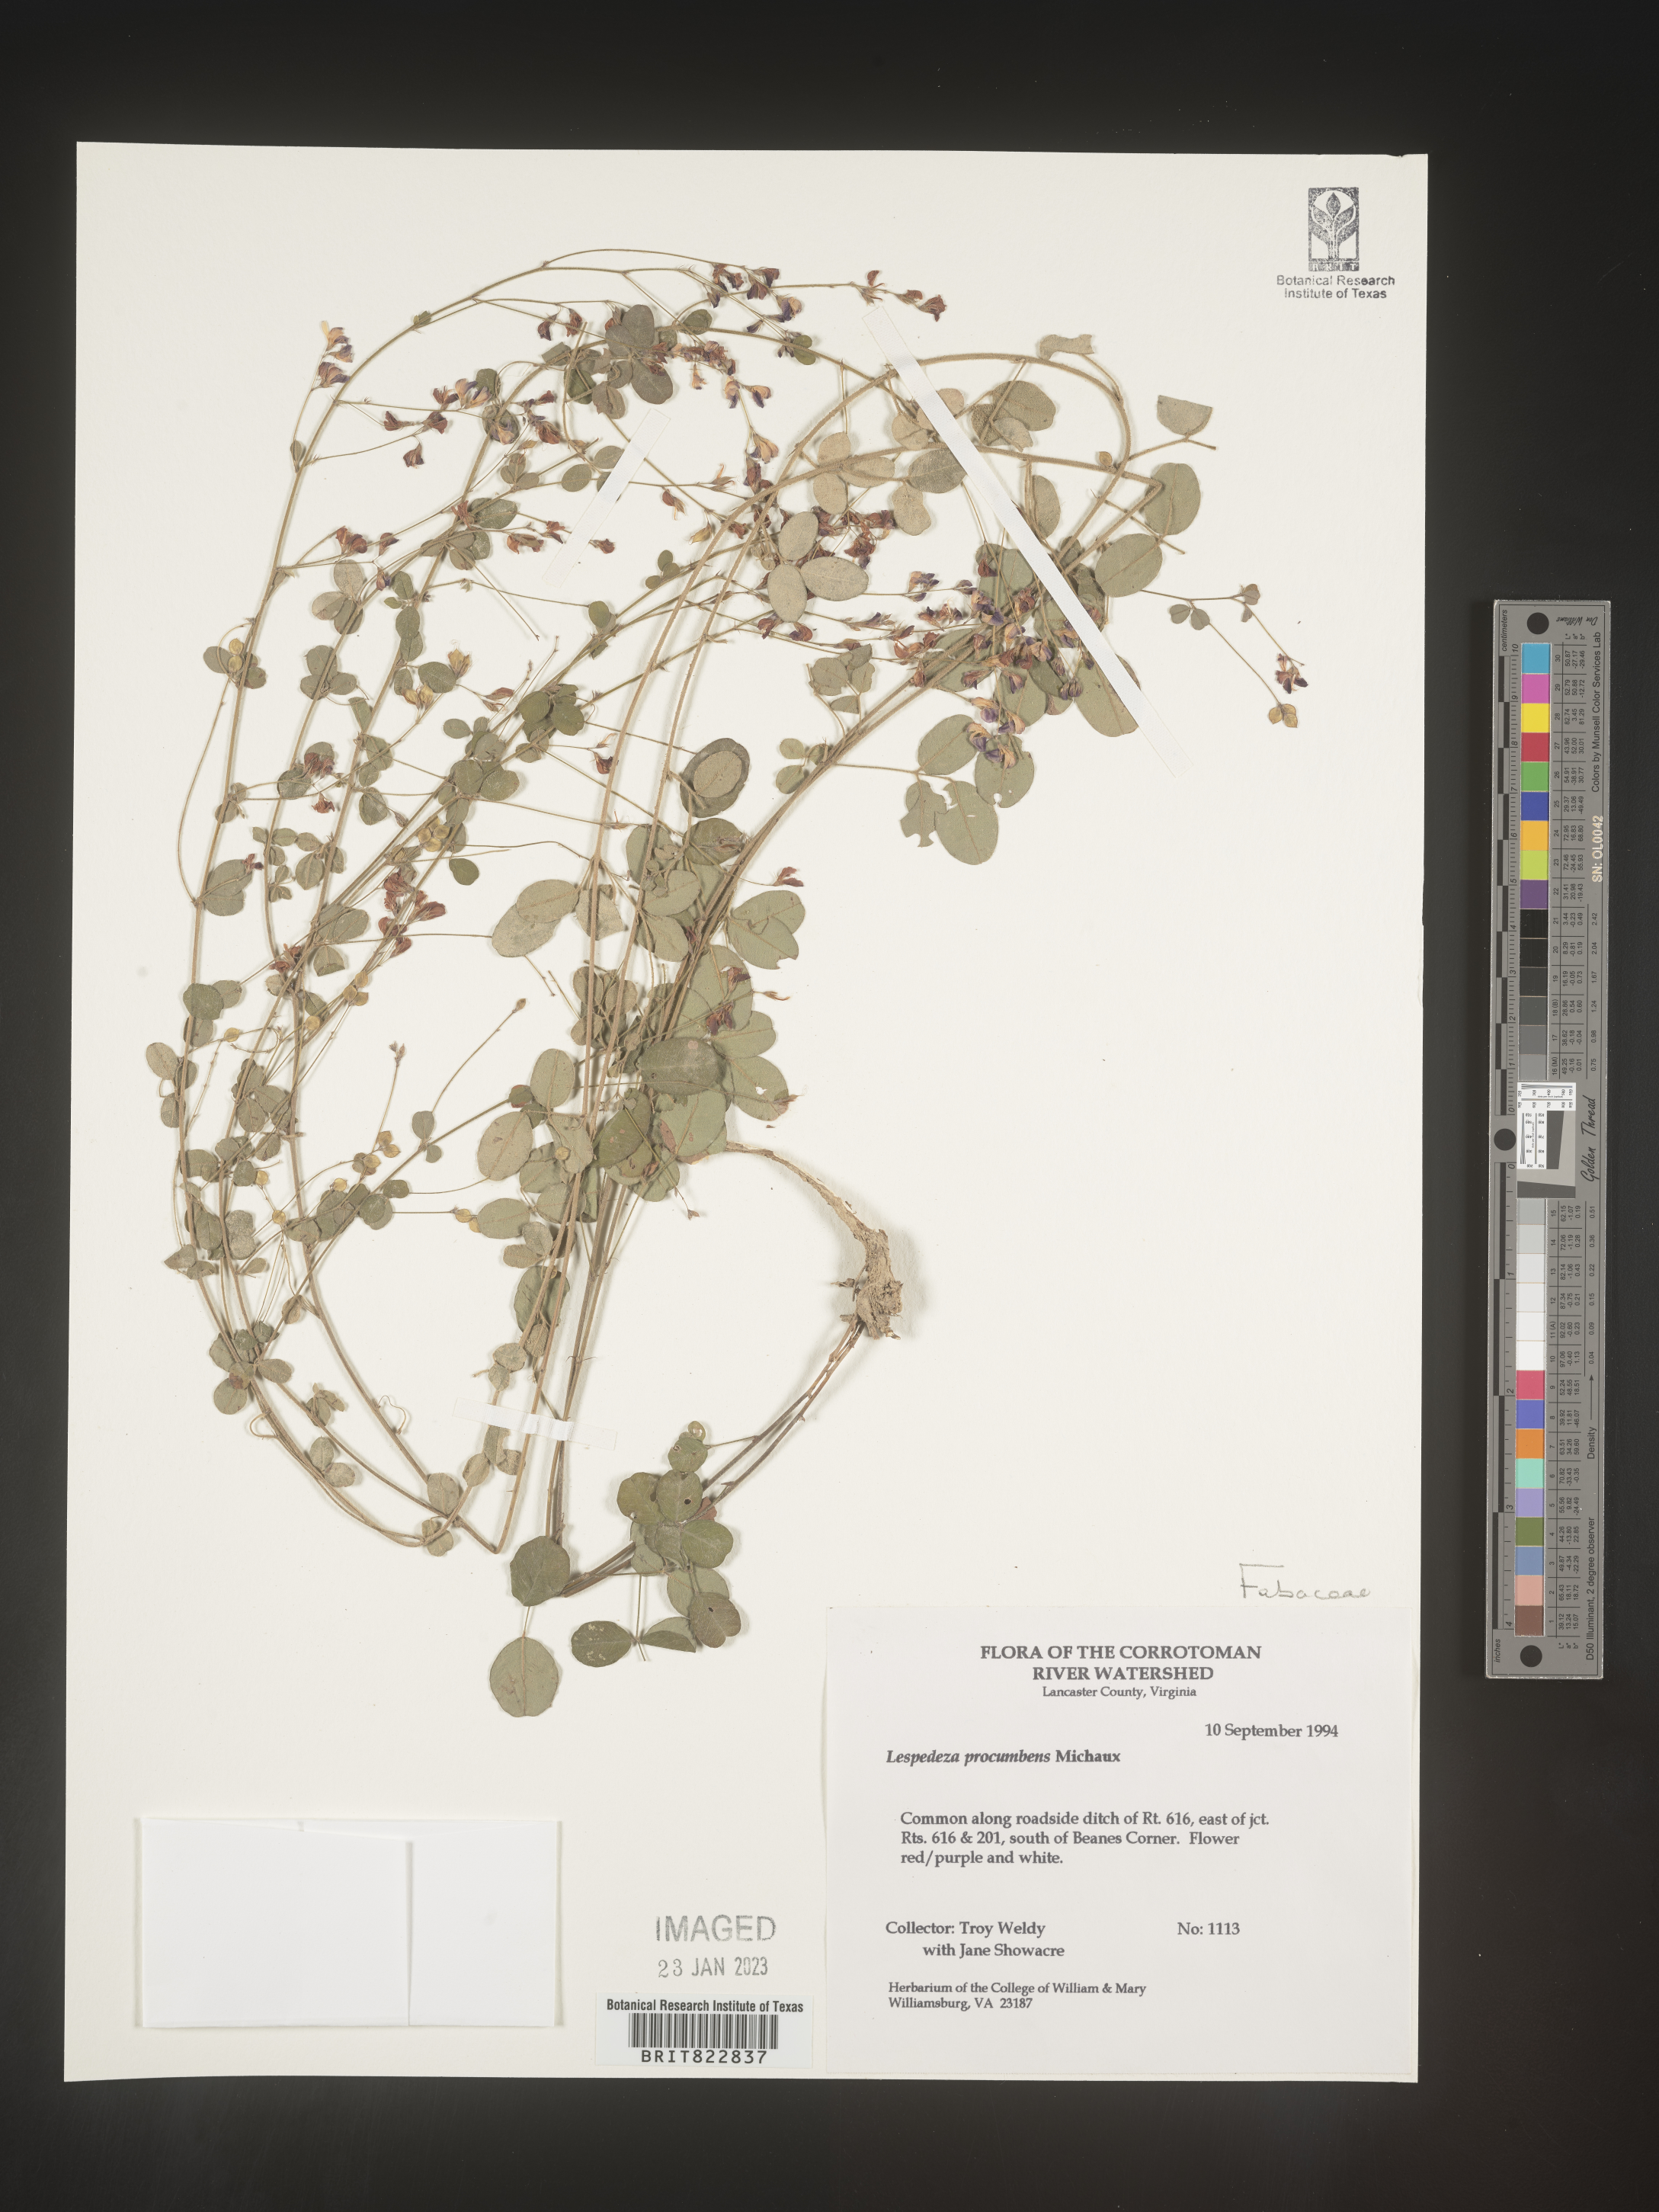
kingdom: Plantae
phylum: Tracheophyta
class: Magnoliopsida
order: Fabales
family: Fabaceae
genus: Lespedeza
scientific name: Lespedeza procumbens
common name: Downy trailing bush-clover
